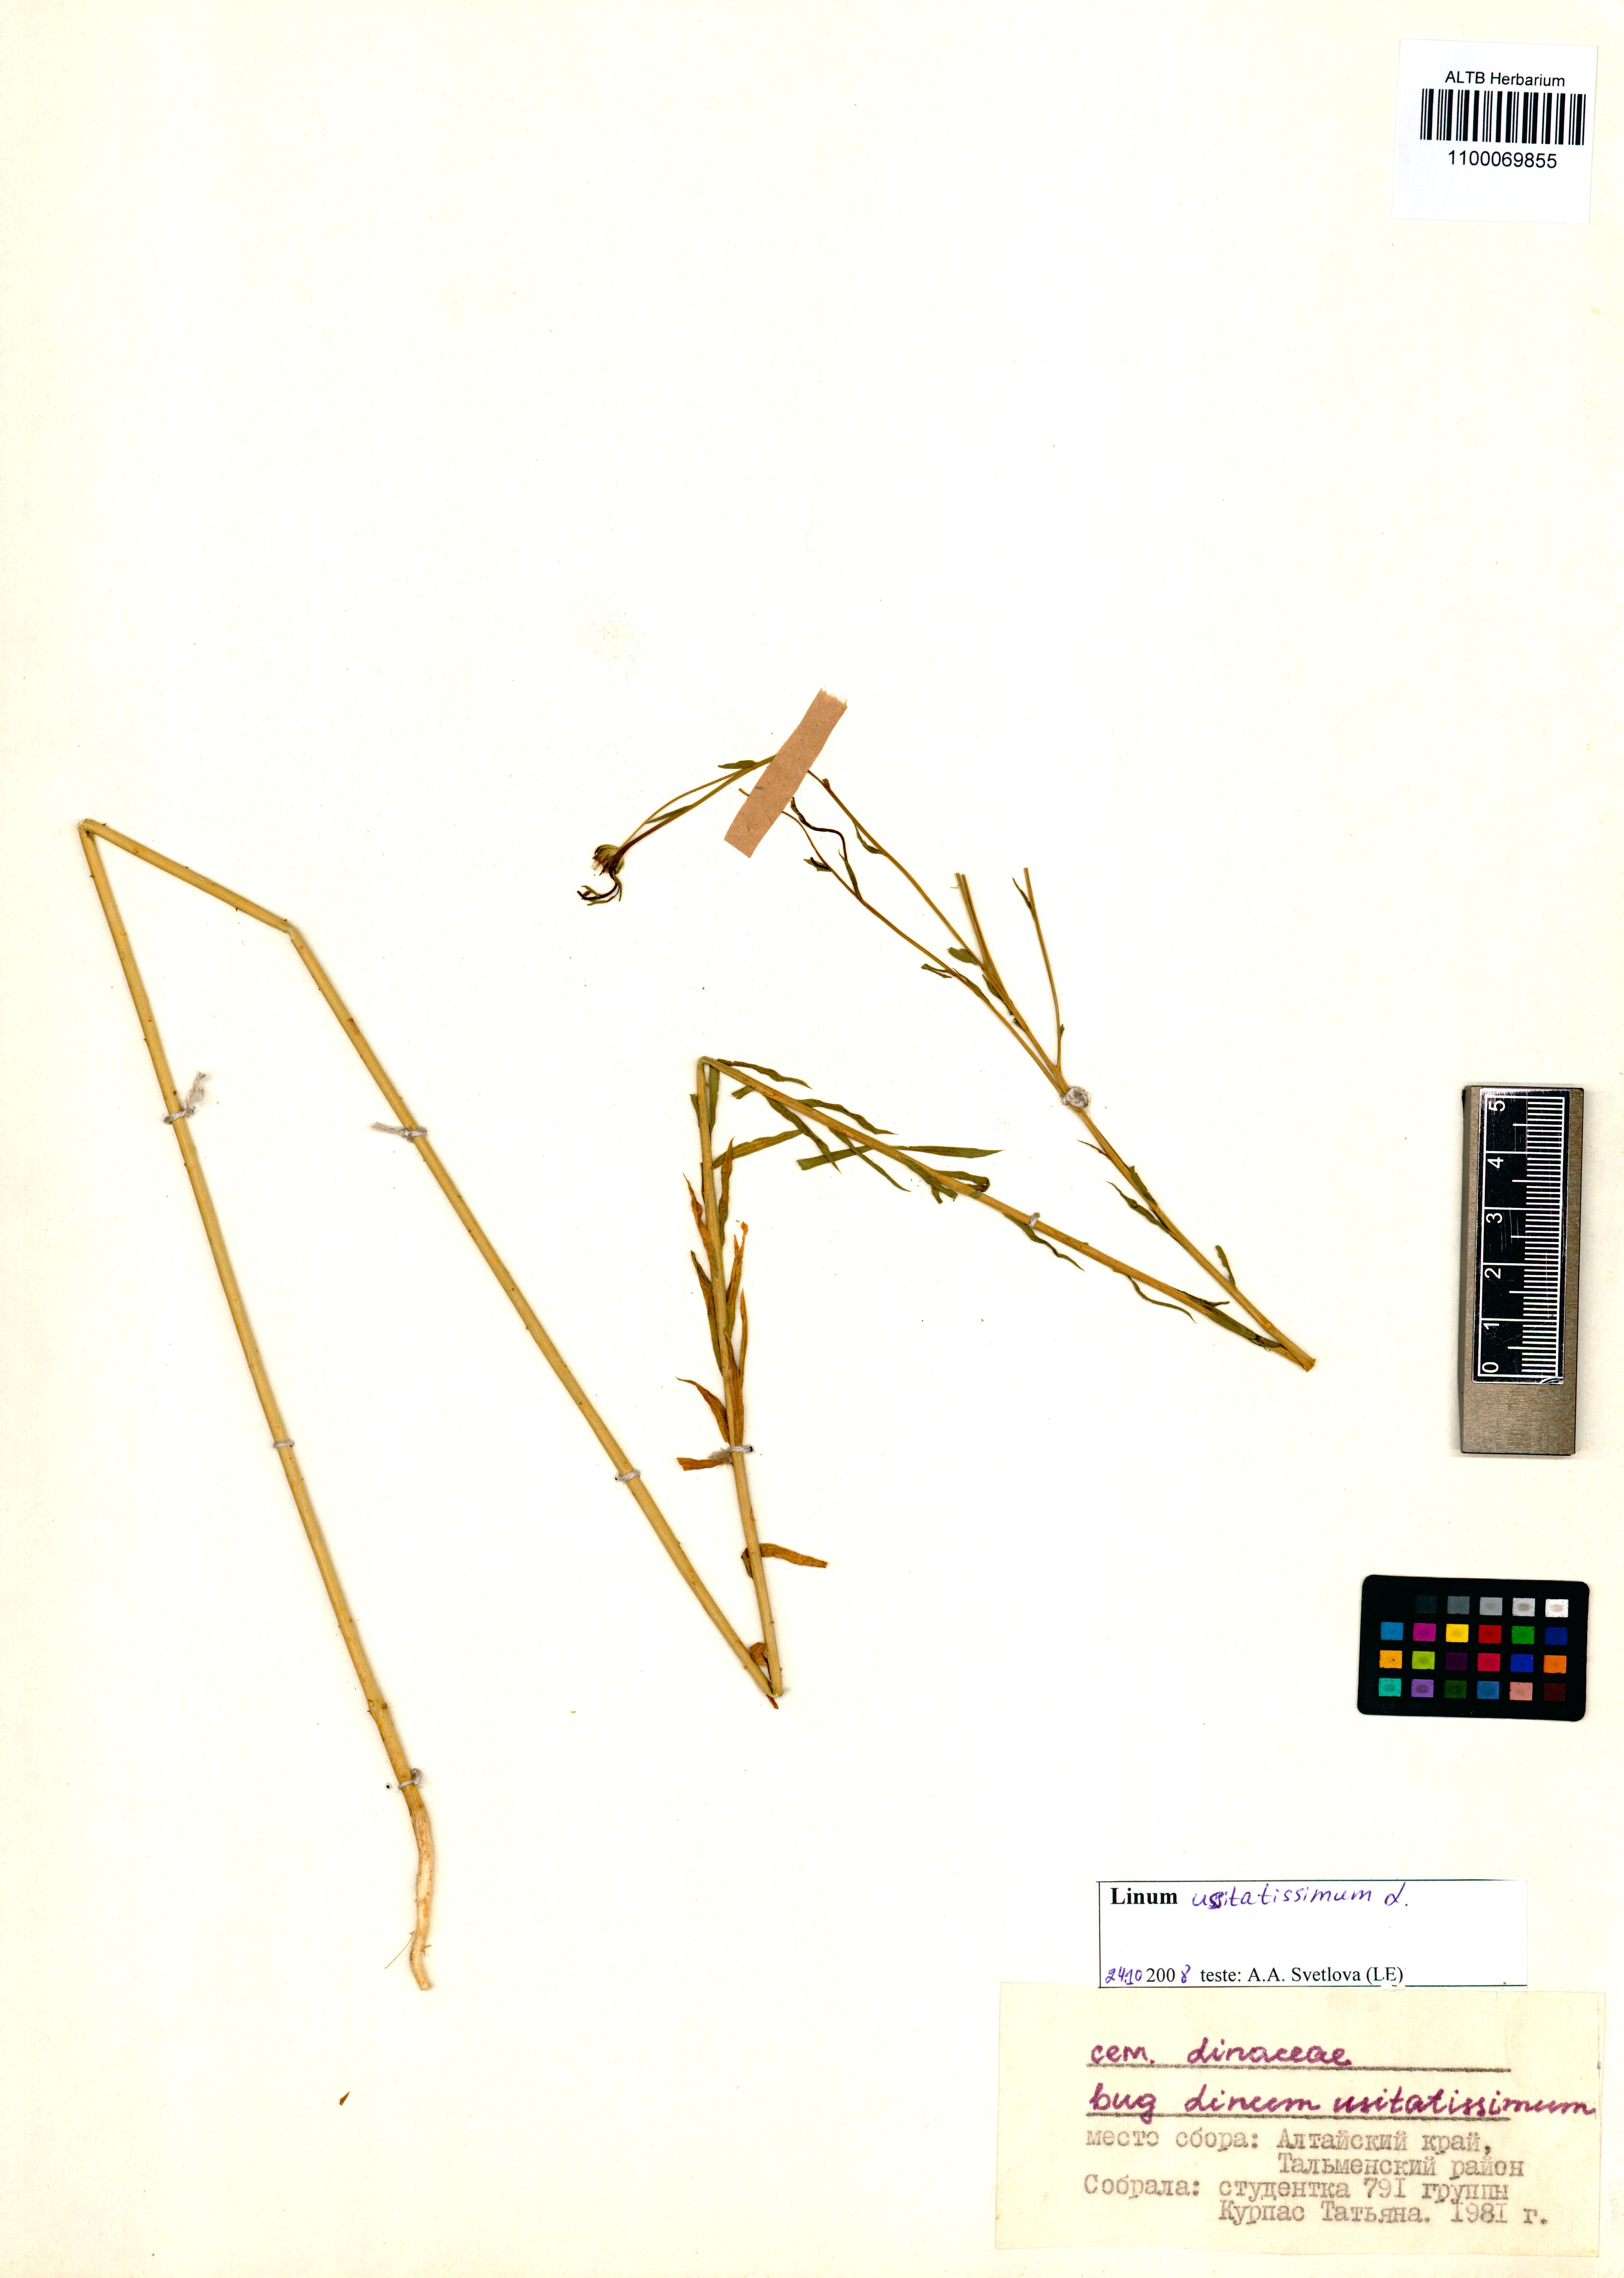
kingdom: Plantae
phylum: Tracheophyta
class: Magnoliopsida
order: Malpighiales
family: Linaceae
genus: Linum
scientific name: Linum usitatissimum
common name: Flax
